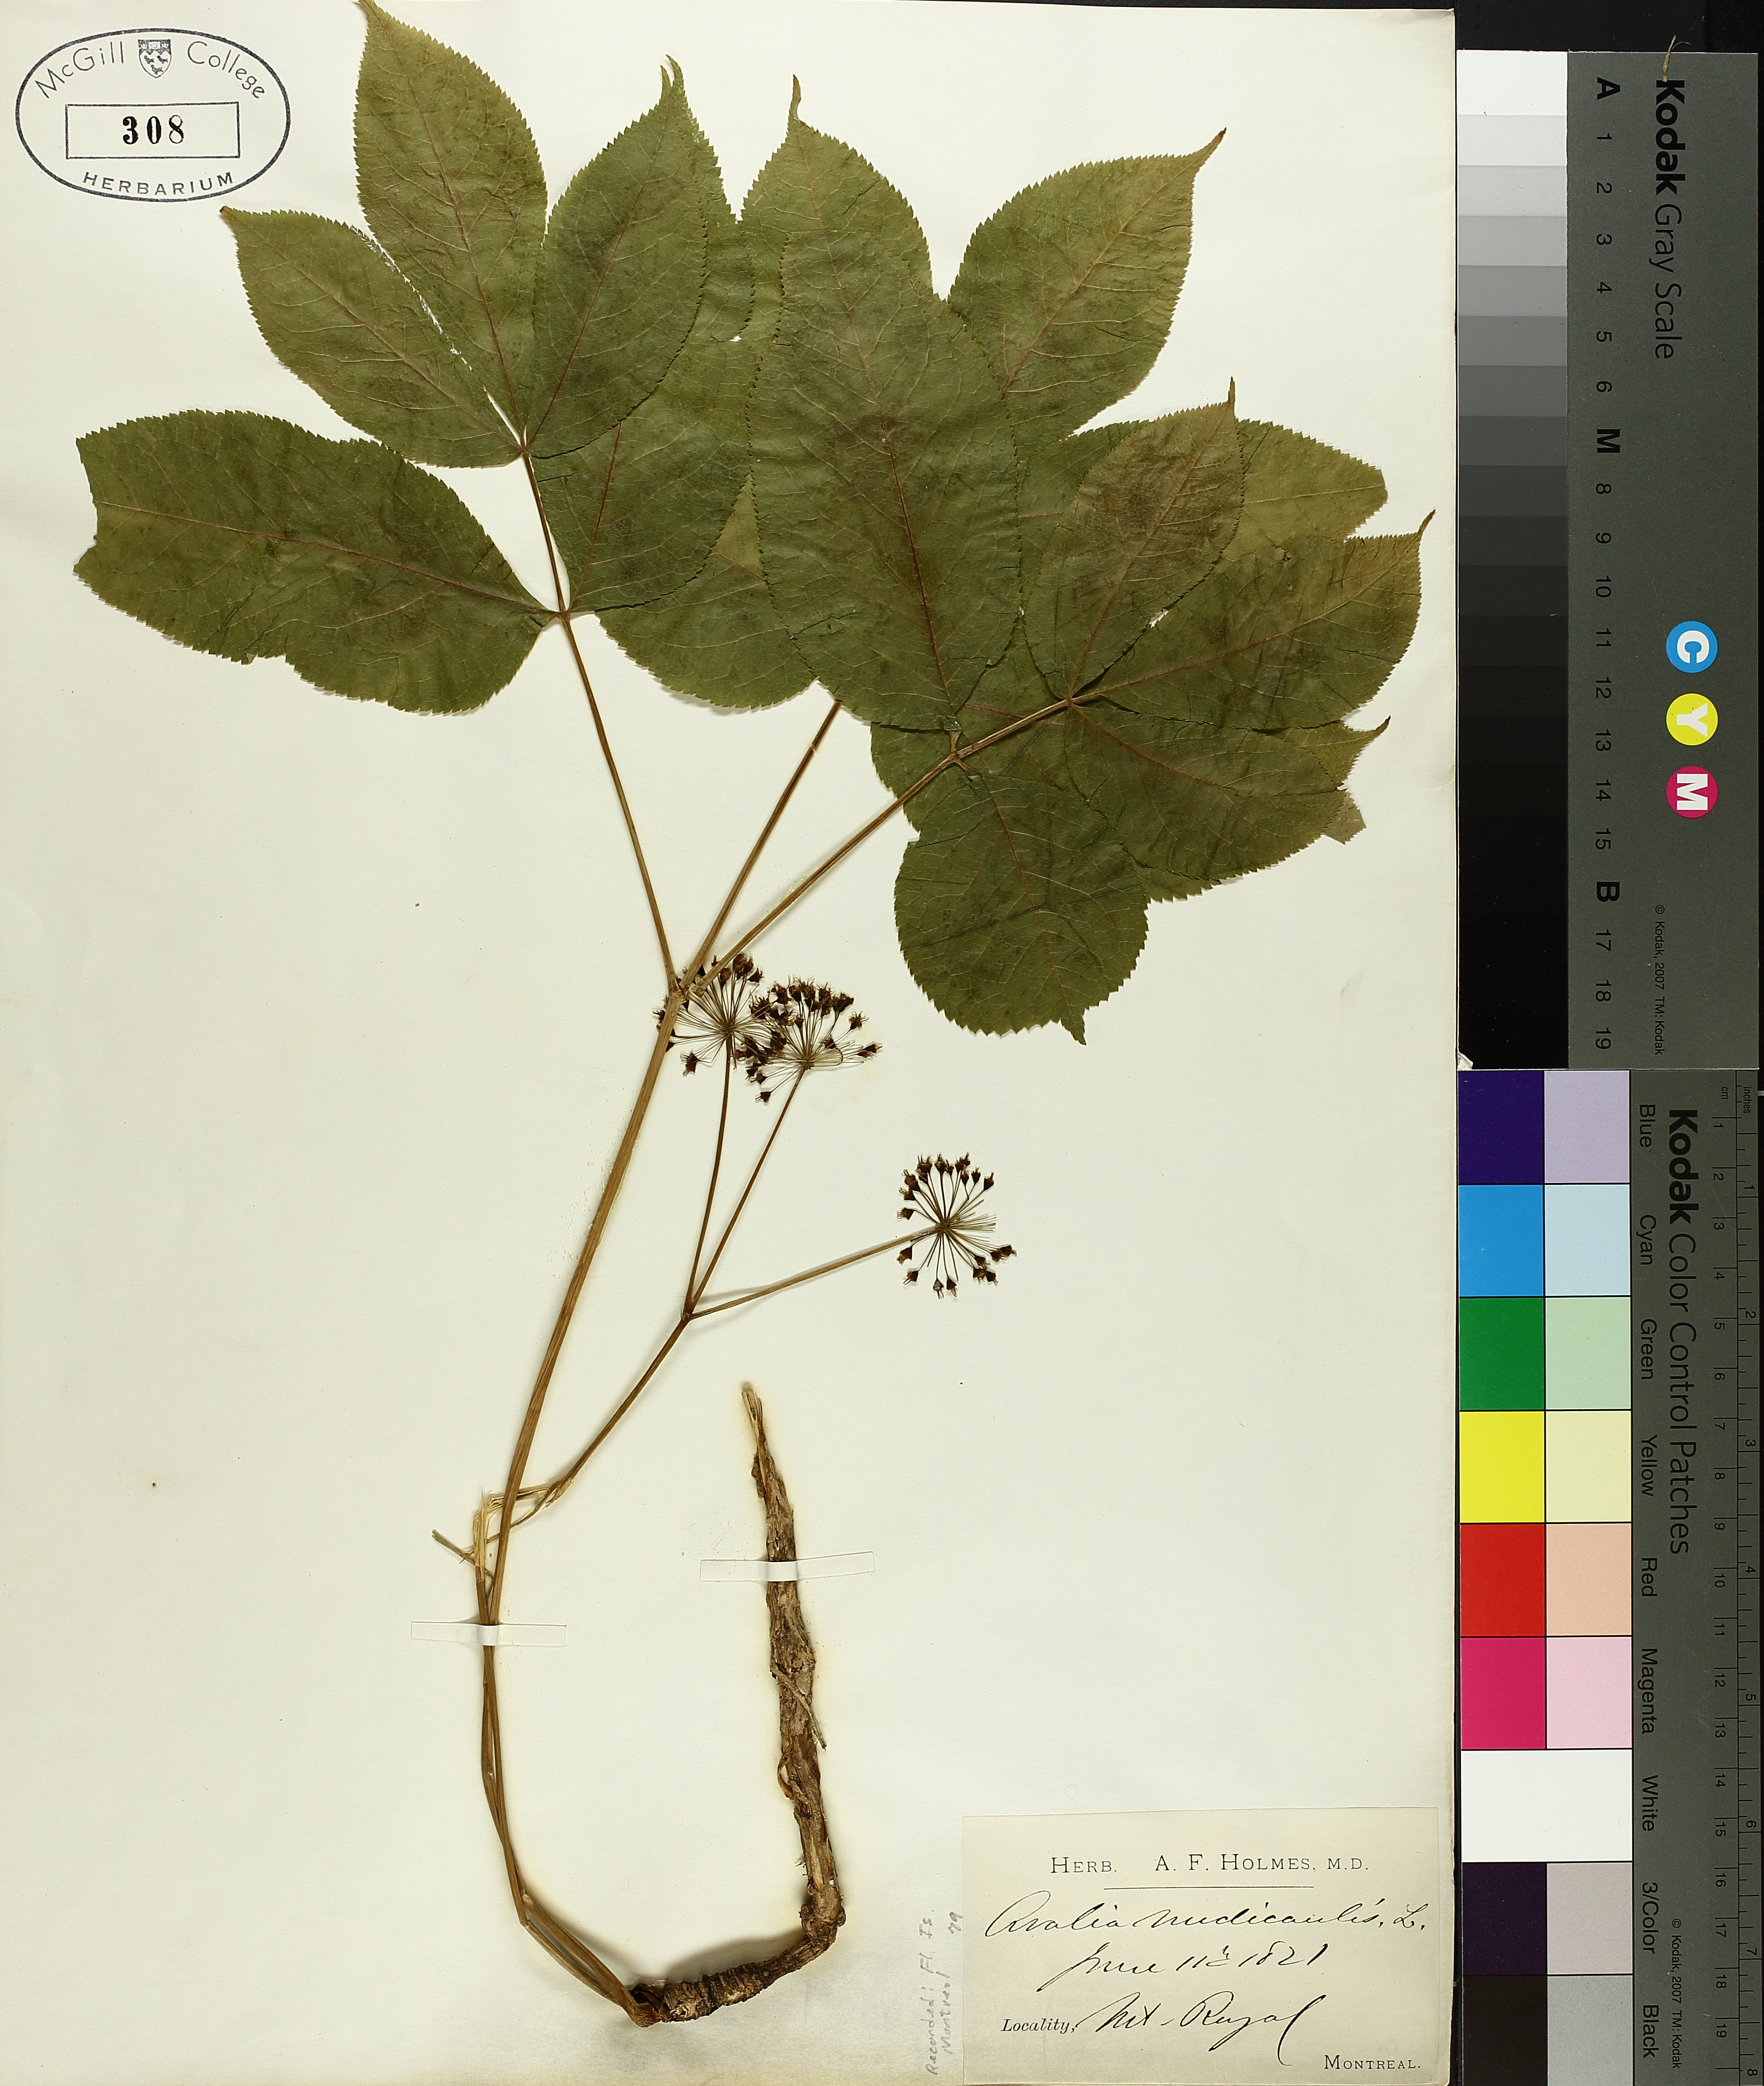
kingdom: Plantae
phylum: Tracheophyta
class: Magnoliopsida
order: Apiales
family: Araliaceae
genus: Aralia
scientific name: Aralia nudicaulis
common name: Wild sarsaparilla
